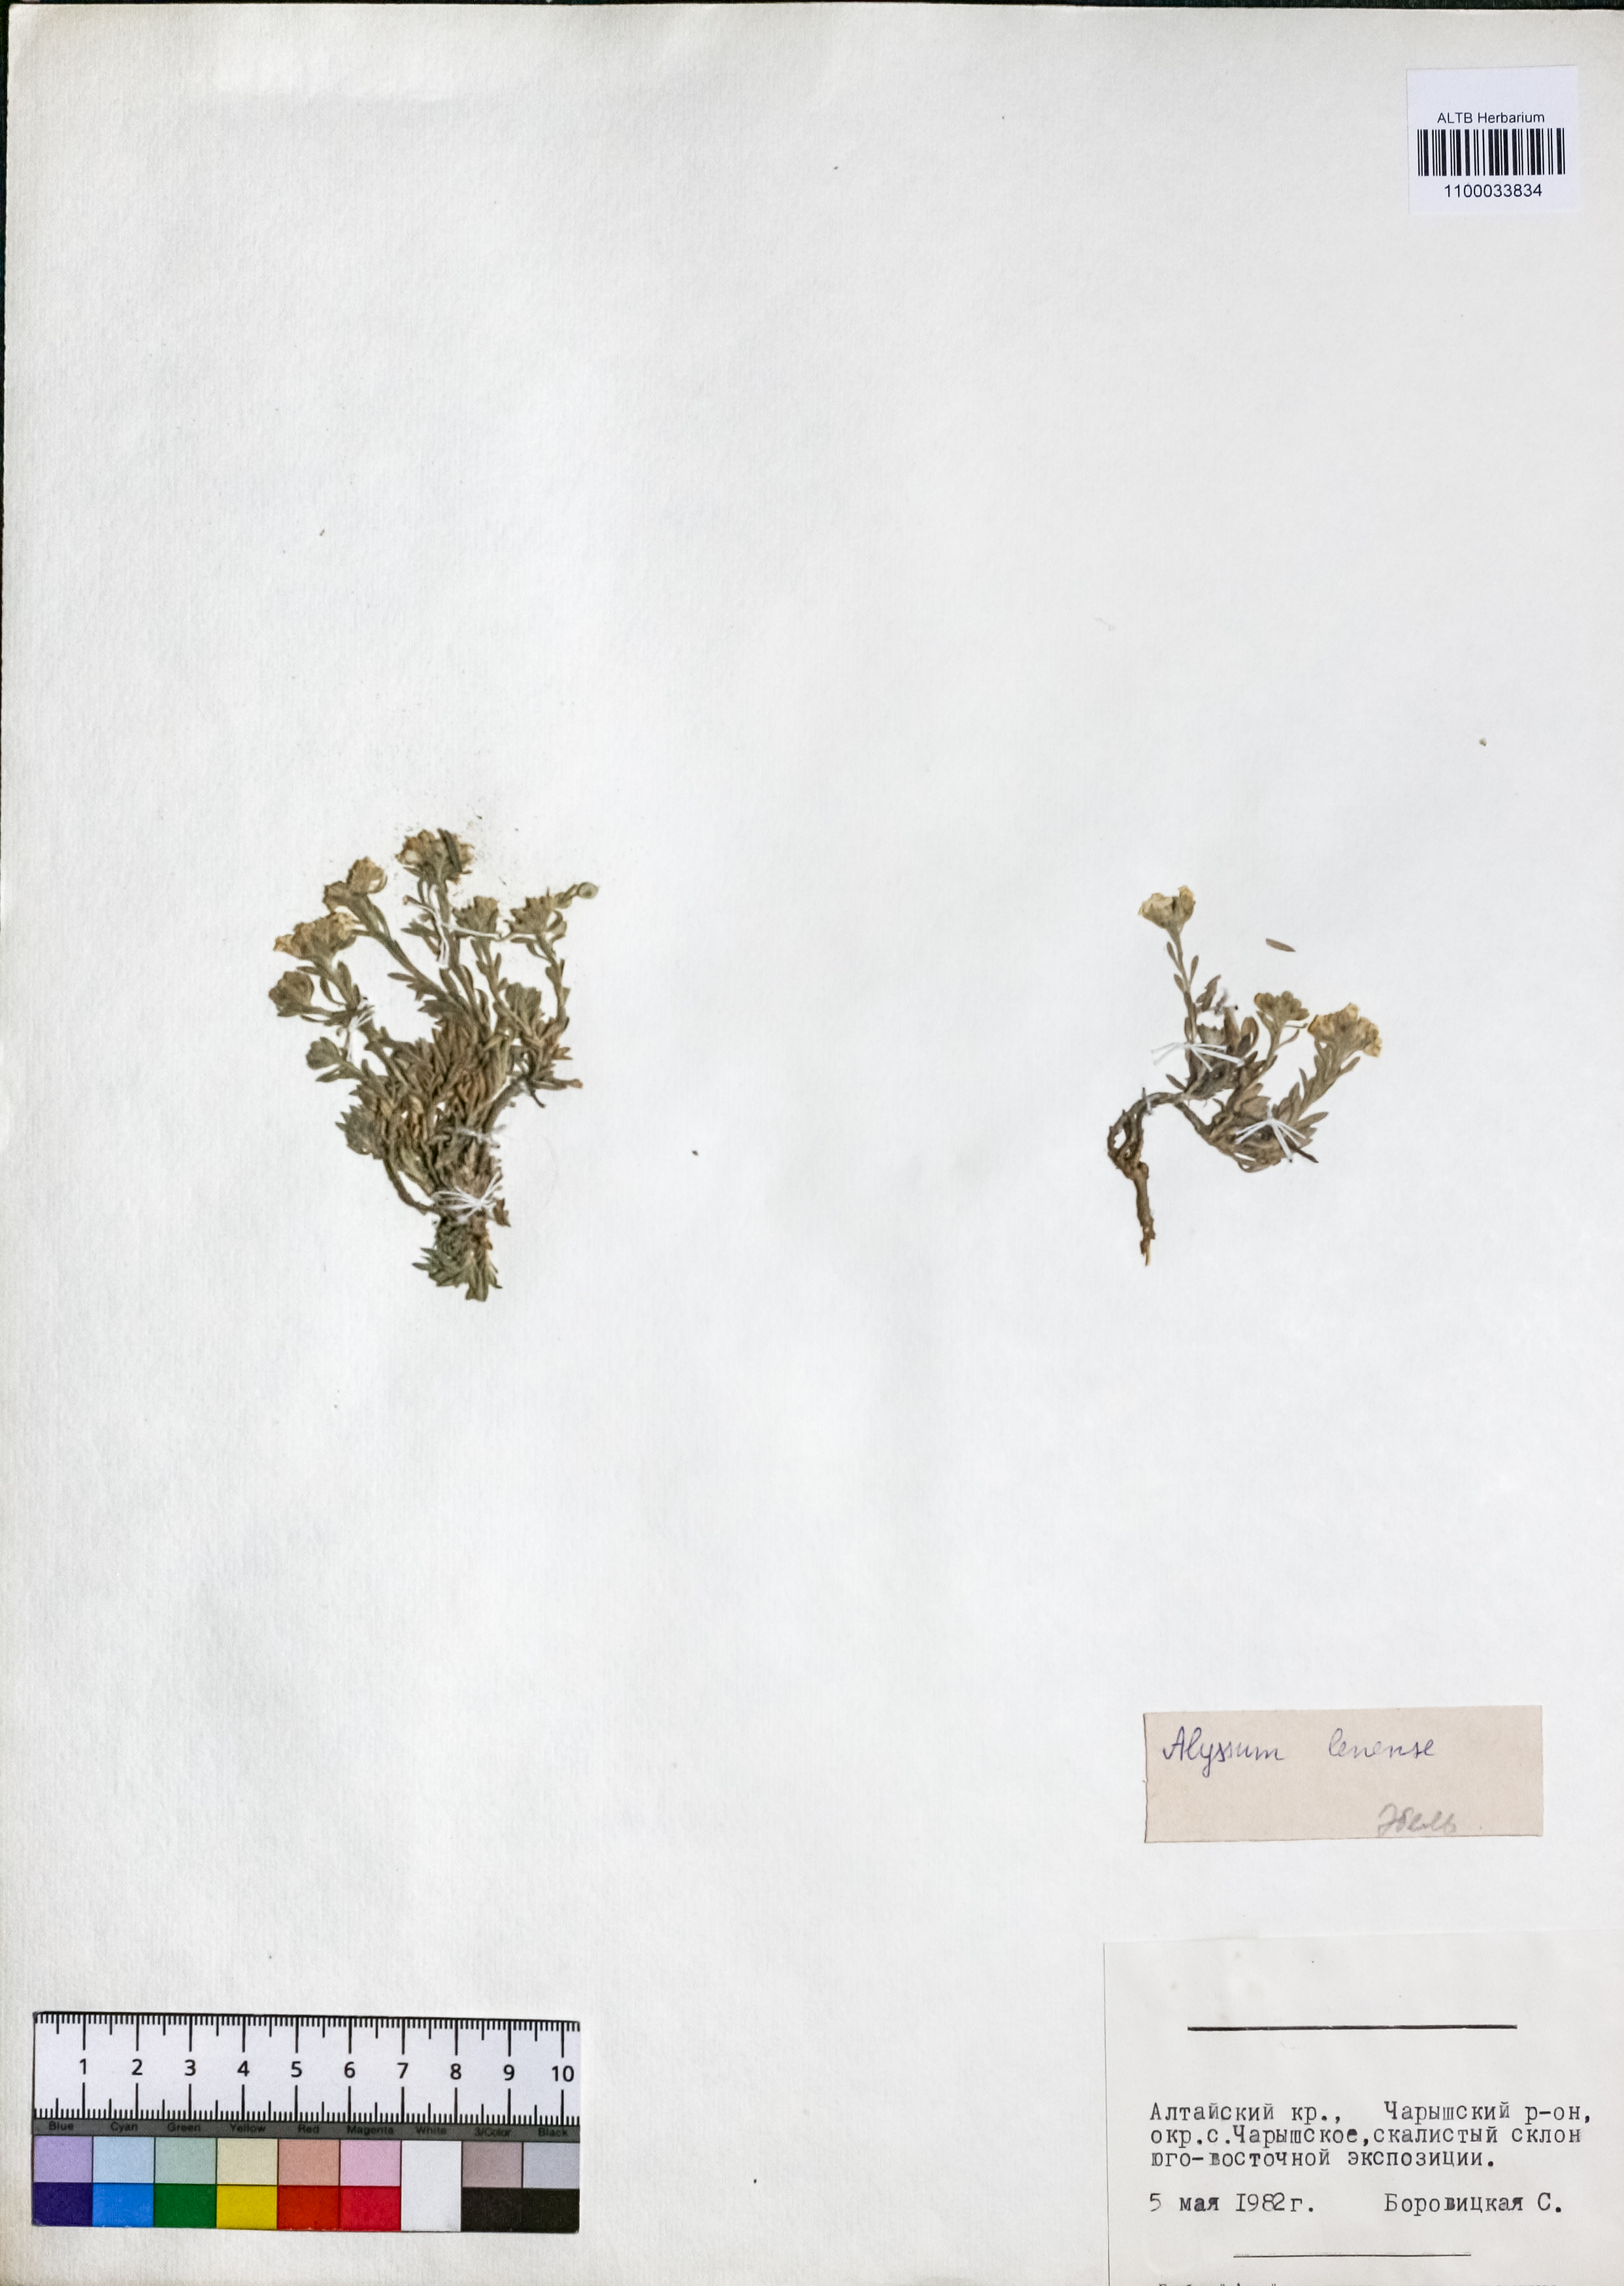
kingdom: Plantae
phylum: Tracheophyta
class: Magnoliopsida
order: Brassicales
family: Brassicaceae
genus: Alyssum
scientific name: Alyssum lenense
